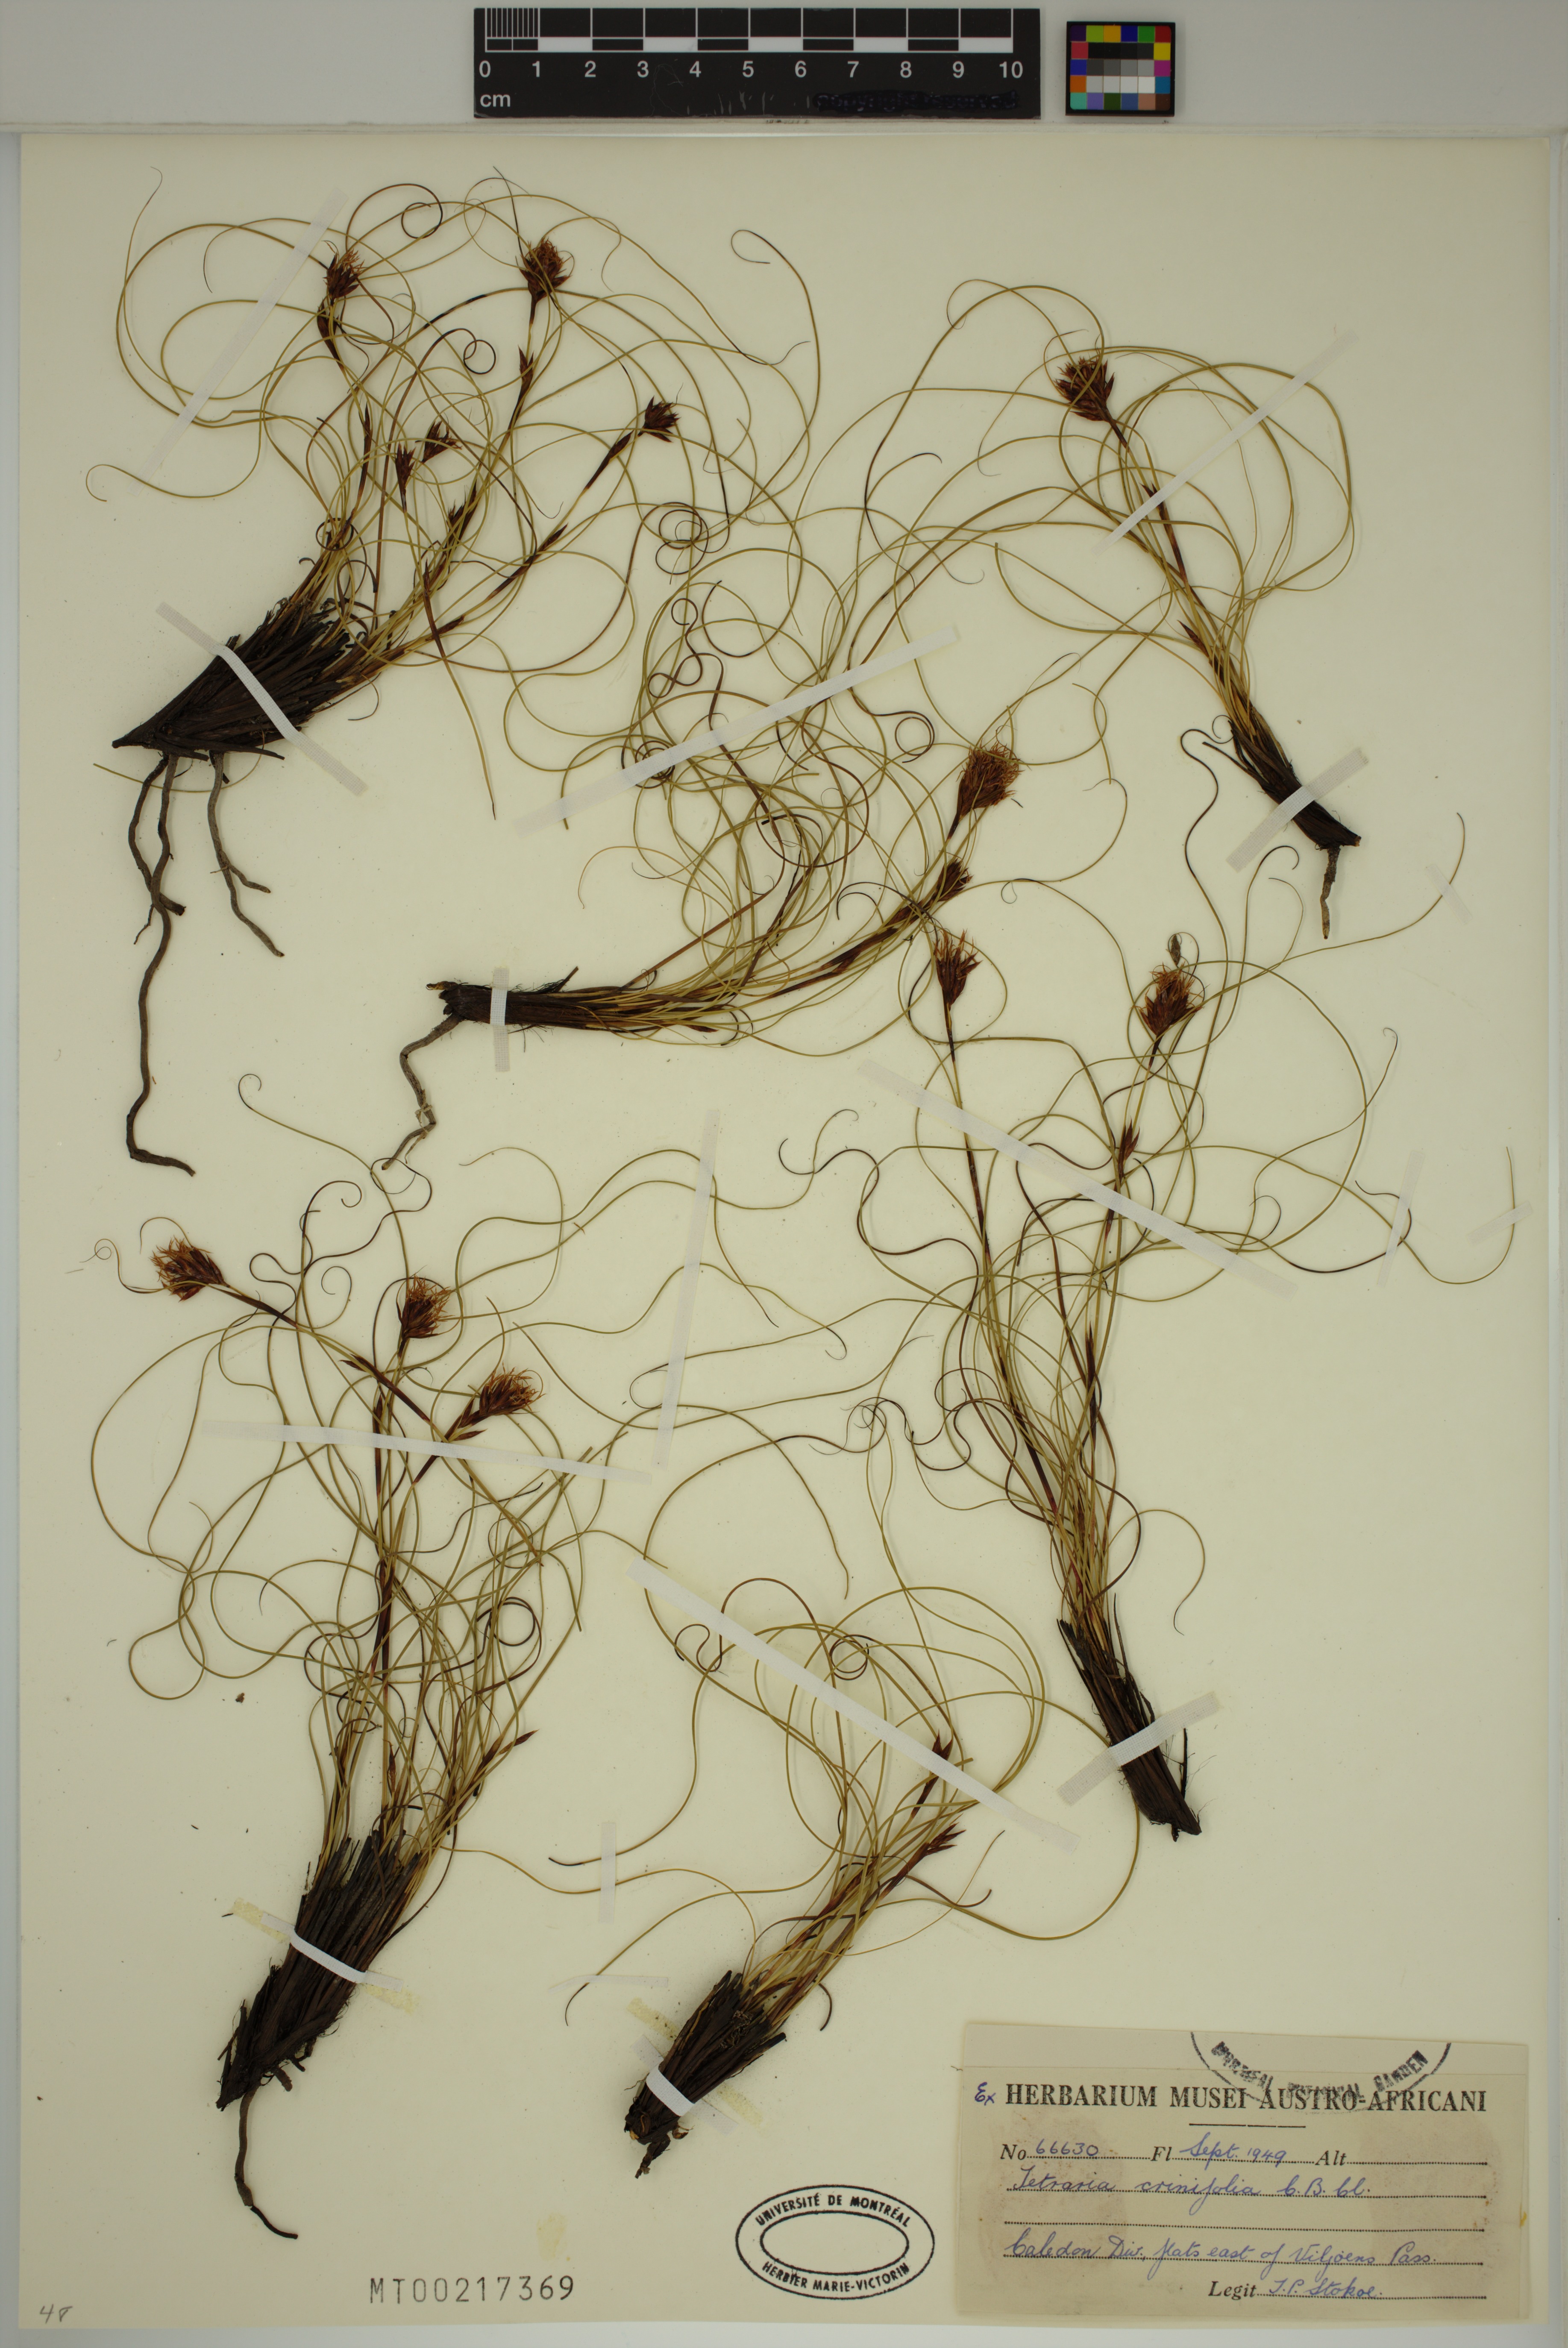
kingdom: Plantae
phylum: Tracheophyta
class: Liliopsida
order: Poales
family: Cyperaceae
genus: Tetraria
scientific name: Tetraria crinifolia
